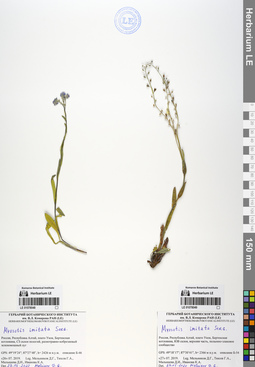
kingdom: Plantae
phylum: Tracheophyta
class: Magnoliopsida
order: Boraginales
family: Boraginaceae
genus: Myosotis
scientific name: Myosotis imitata
